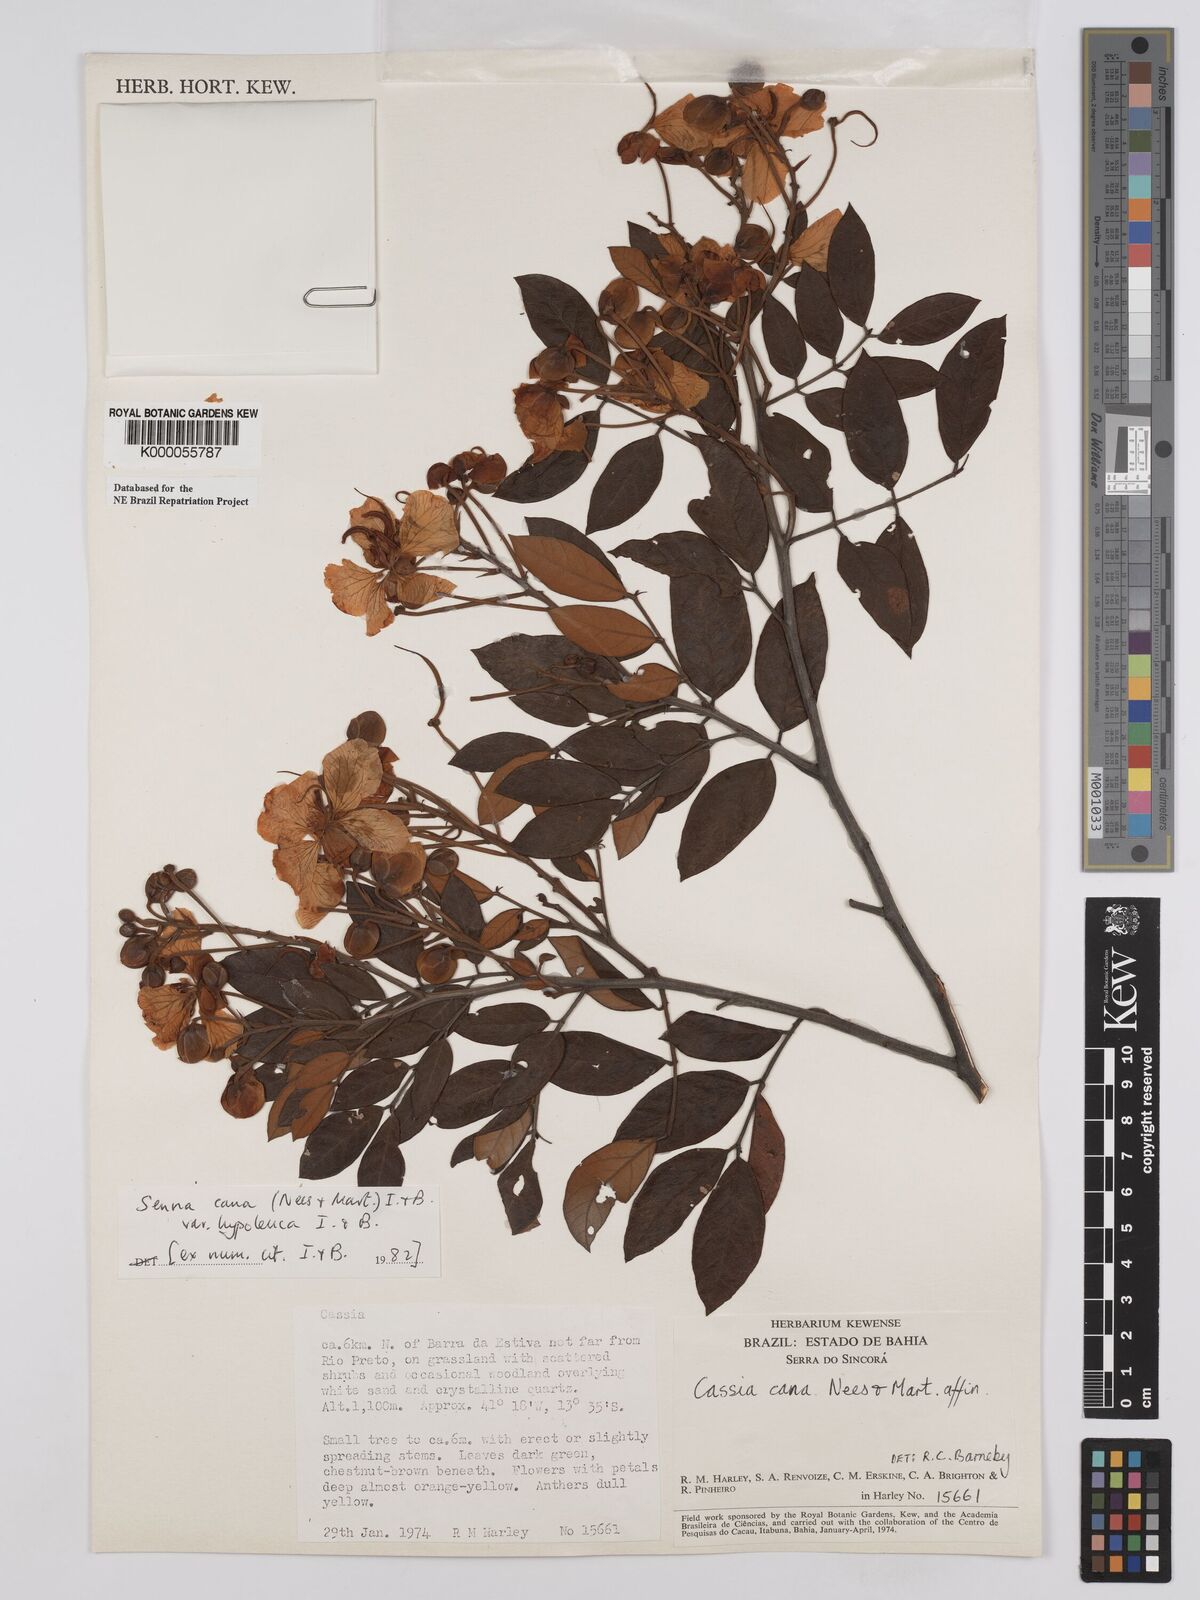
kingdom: Plantae
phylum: Tracheophyta
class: Magnoliopsida
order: Fabales
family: Fabaceae
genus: Senna
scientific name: Senna cana
